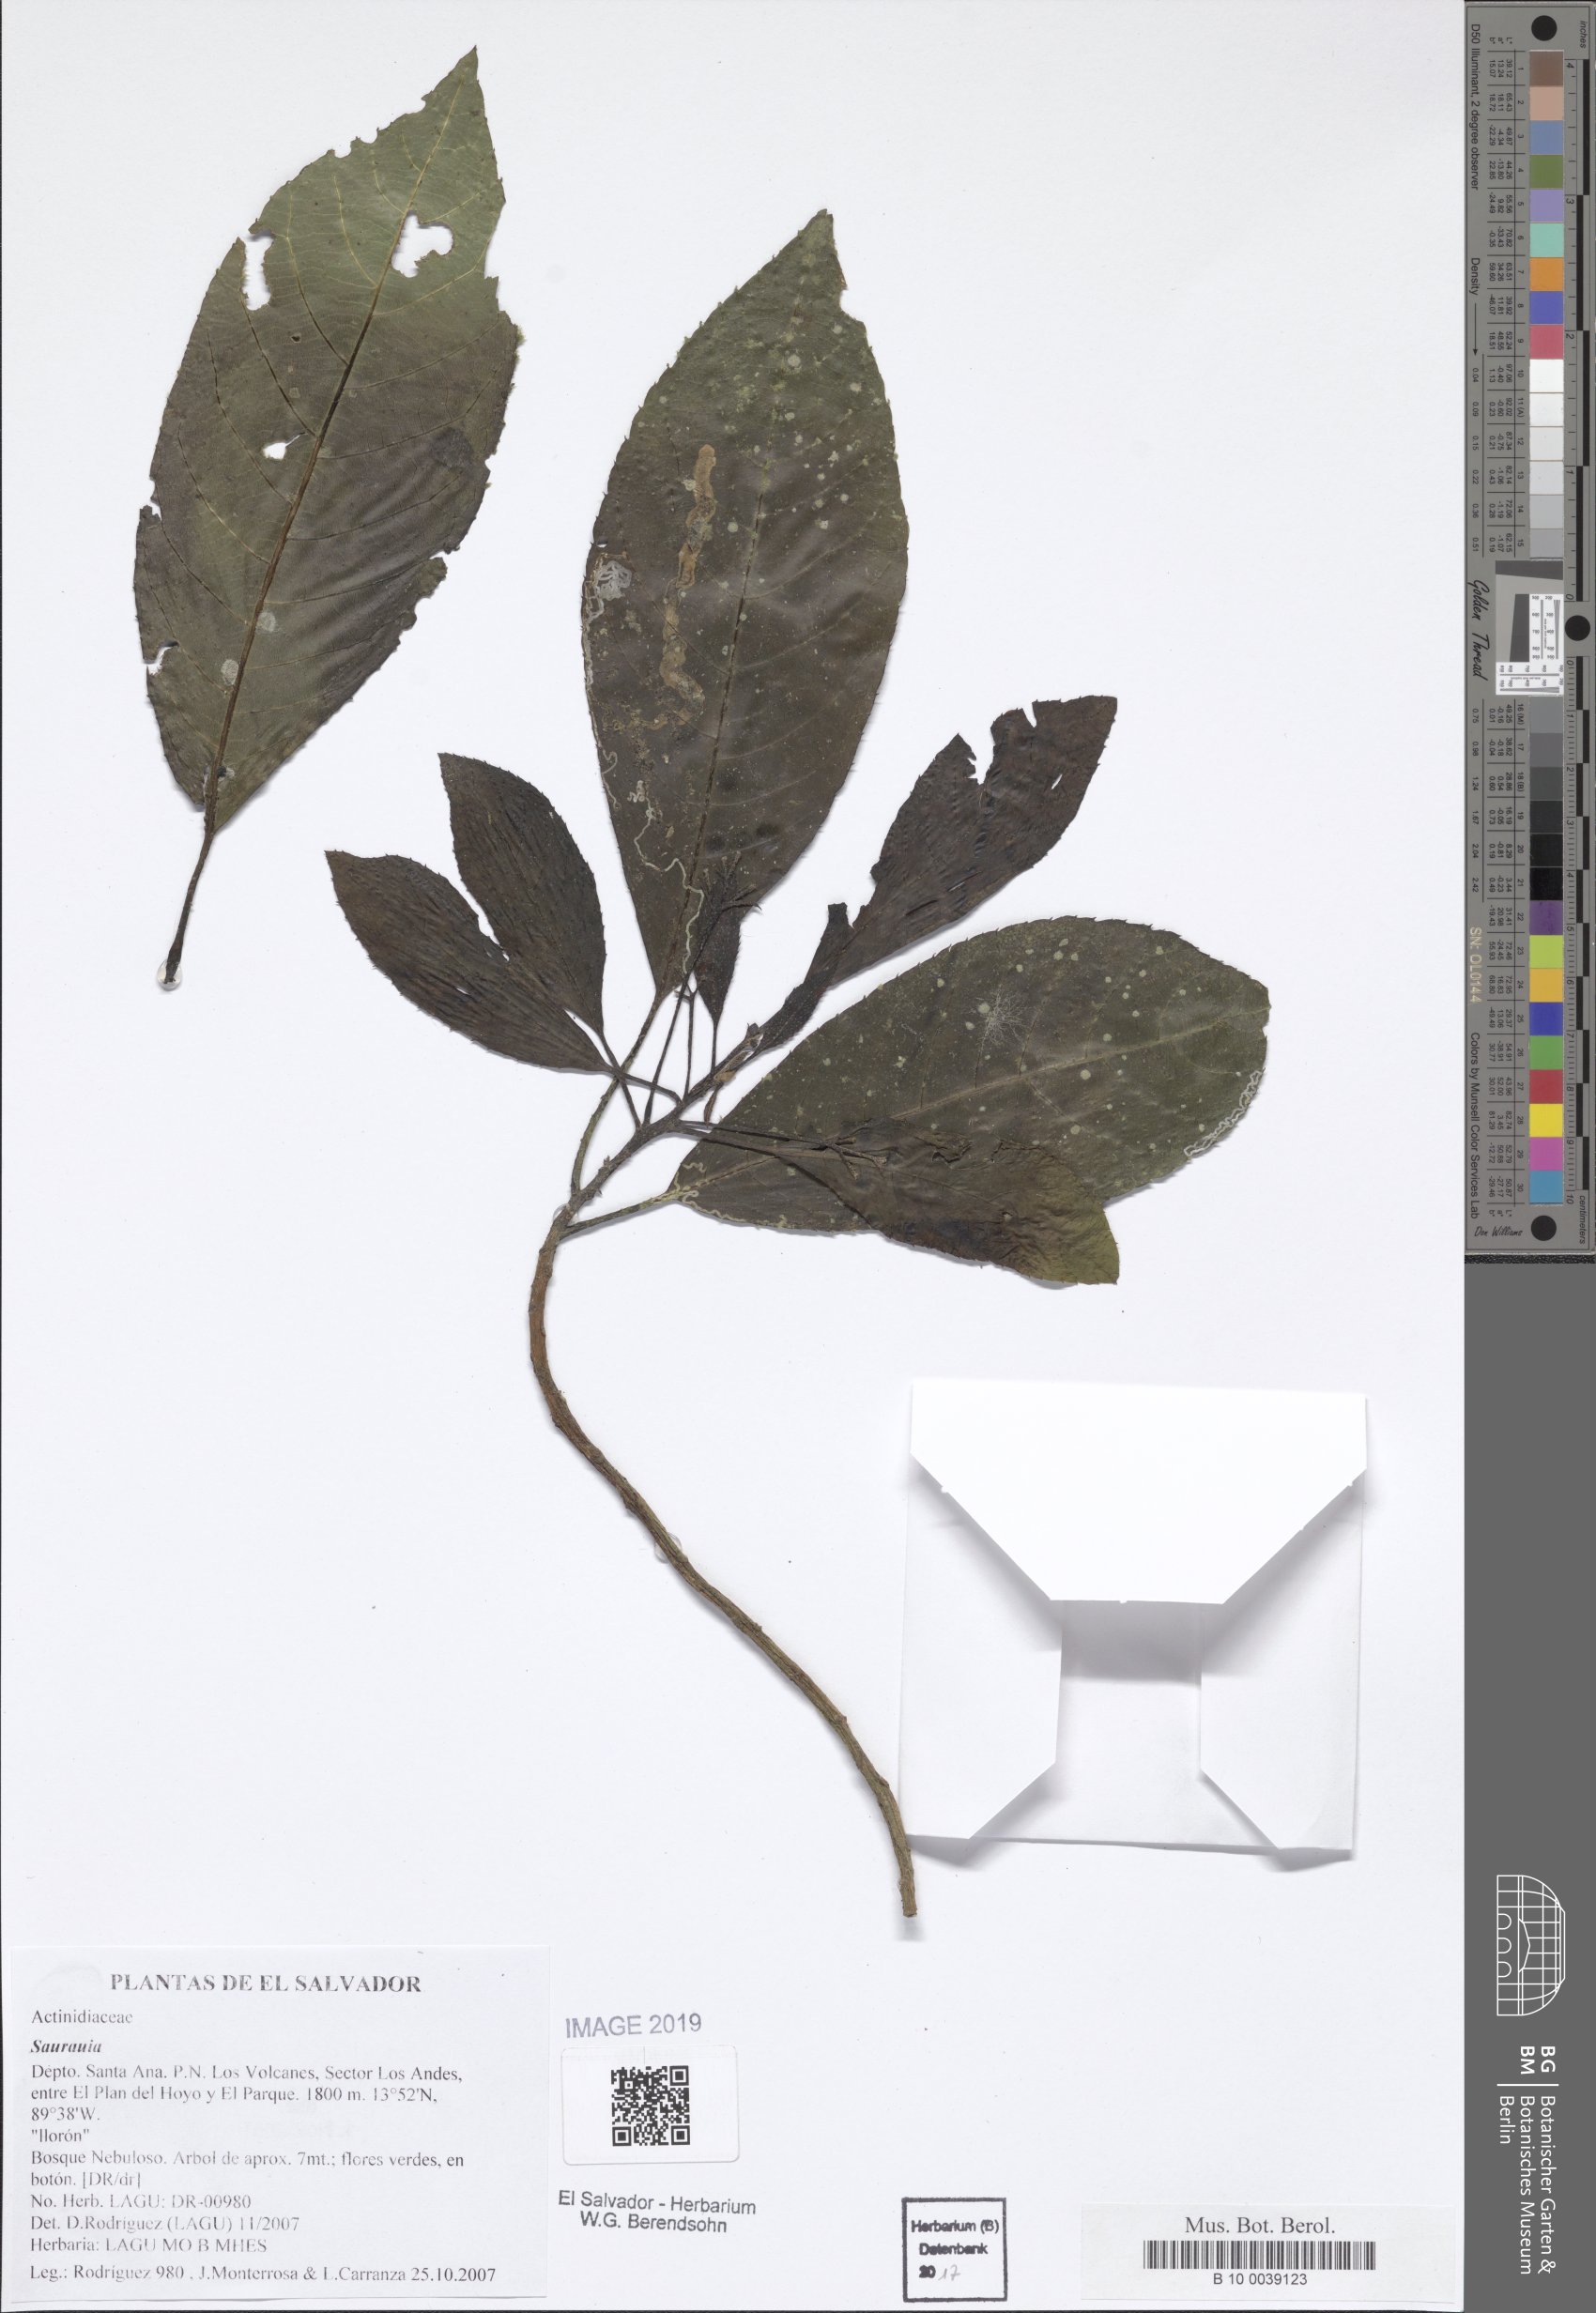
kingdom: Plantae
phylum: Tracheophyta
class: Magnoliopsida
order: Ericales
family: Actinidiaceae
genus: Saurauia
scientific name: Saurauia
